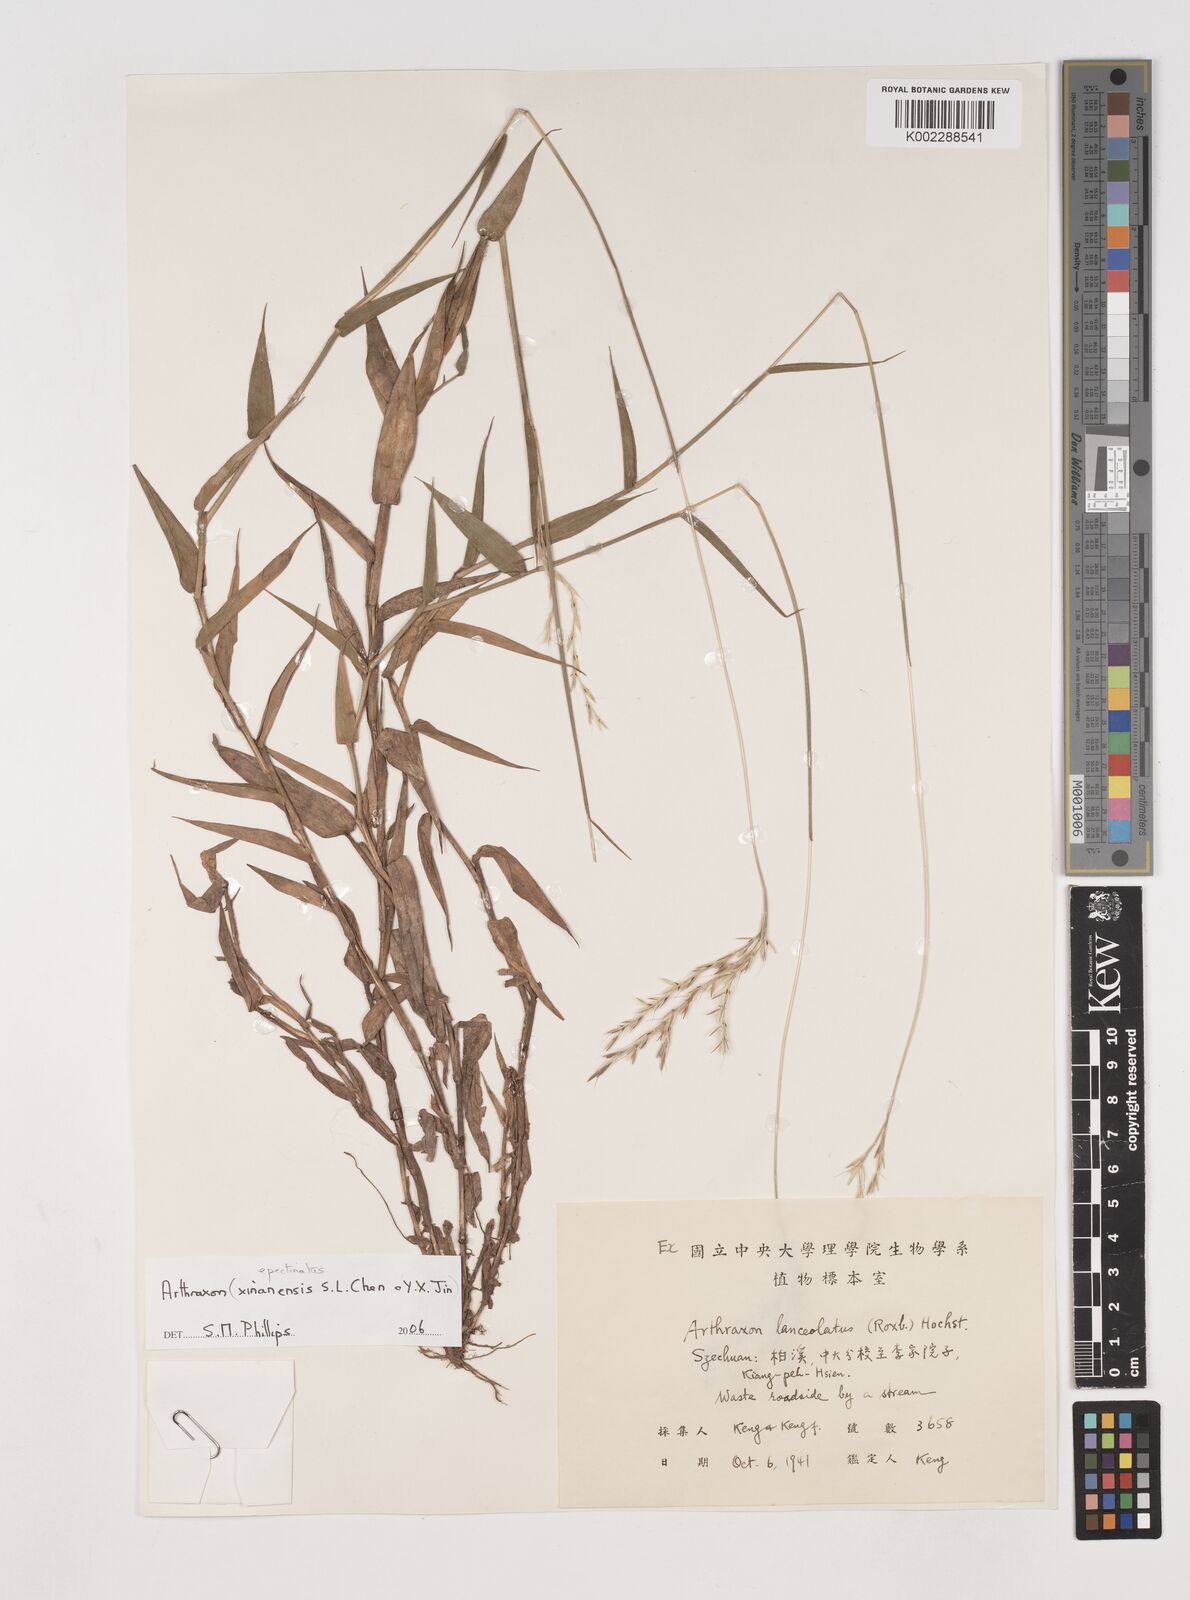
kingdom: Plantae
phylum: Tracheophyta
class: Liliopsida
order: Poales
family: Poaceae
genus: Arthraxon
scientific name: Arthraxon epectinatus
